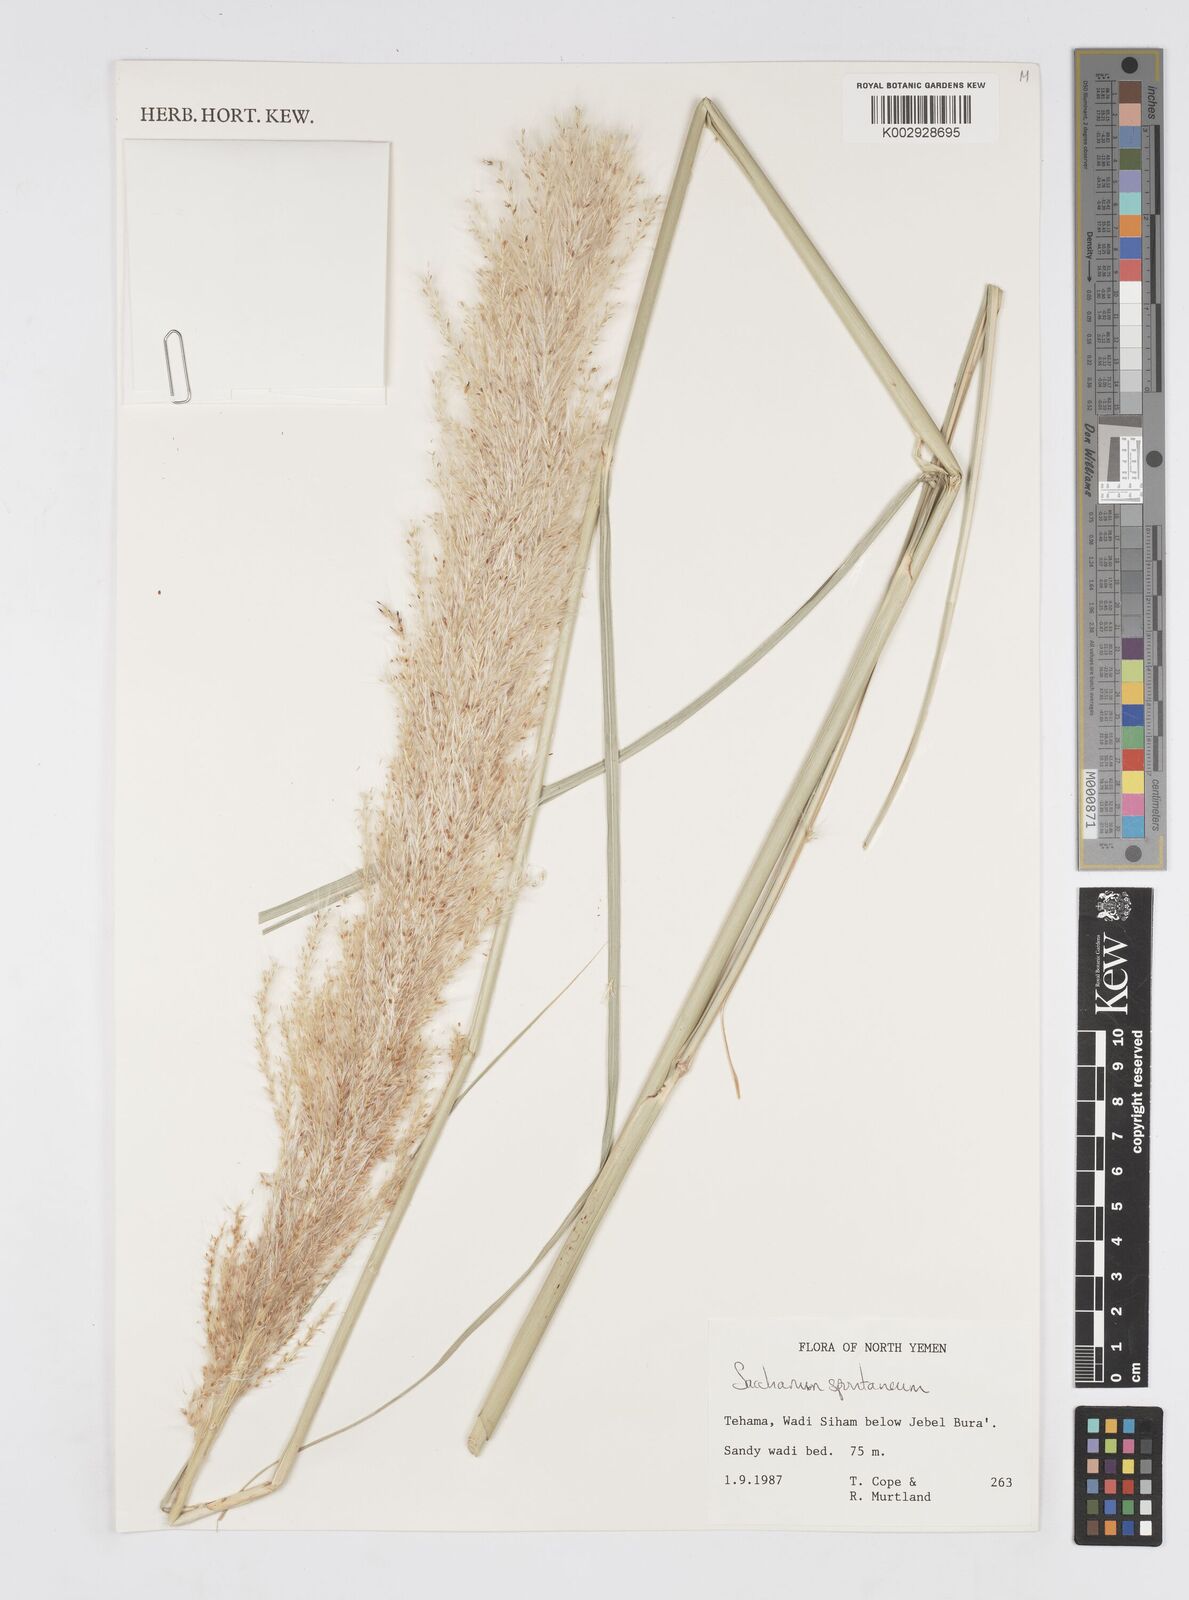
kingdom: Plantae
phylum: Tracheophyta
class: Liliopsida
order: Poales
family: Poaceae
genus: Saccharum
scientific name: Saccharum spontaneum
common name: Wild sugarcane
